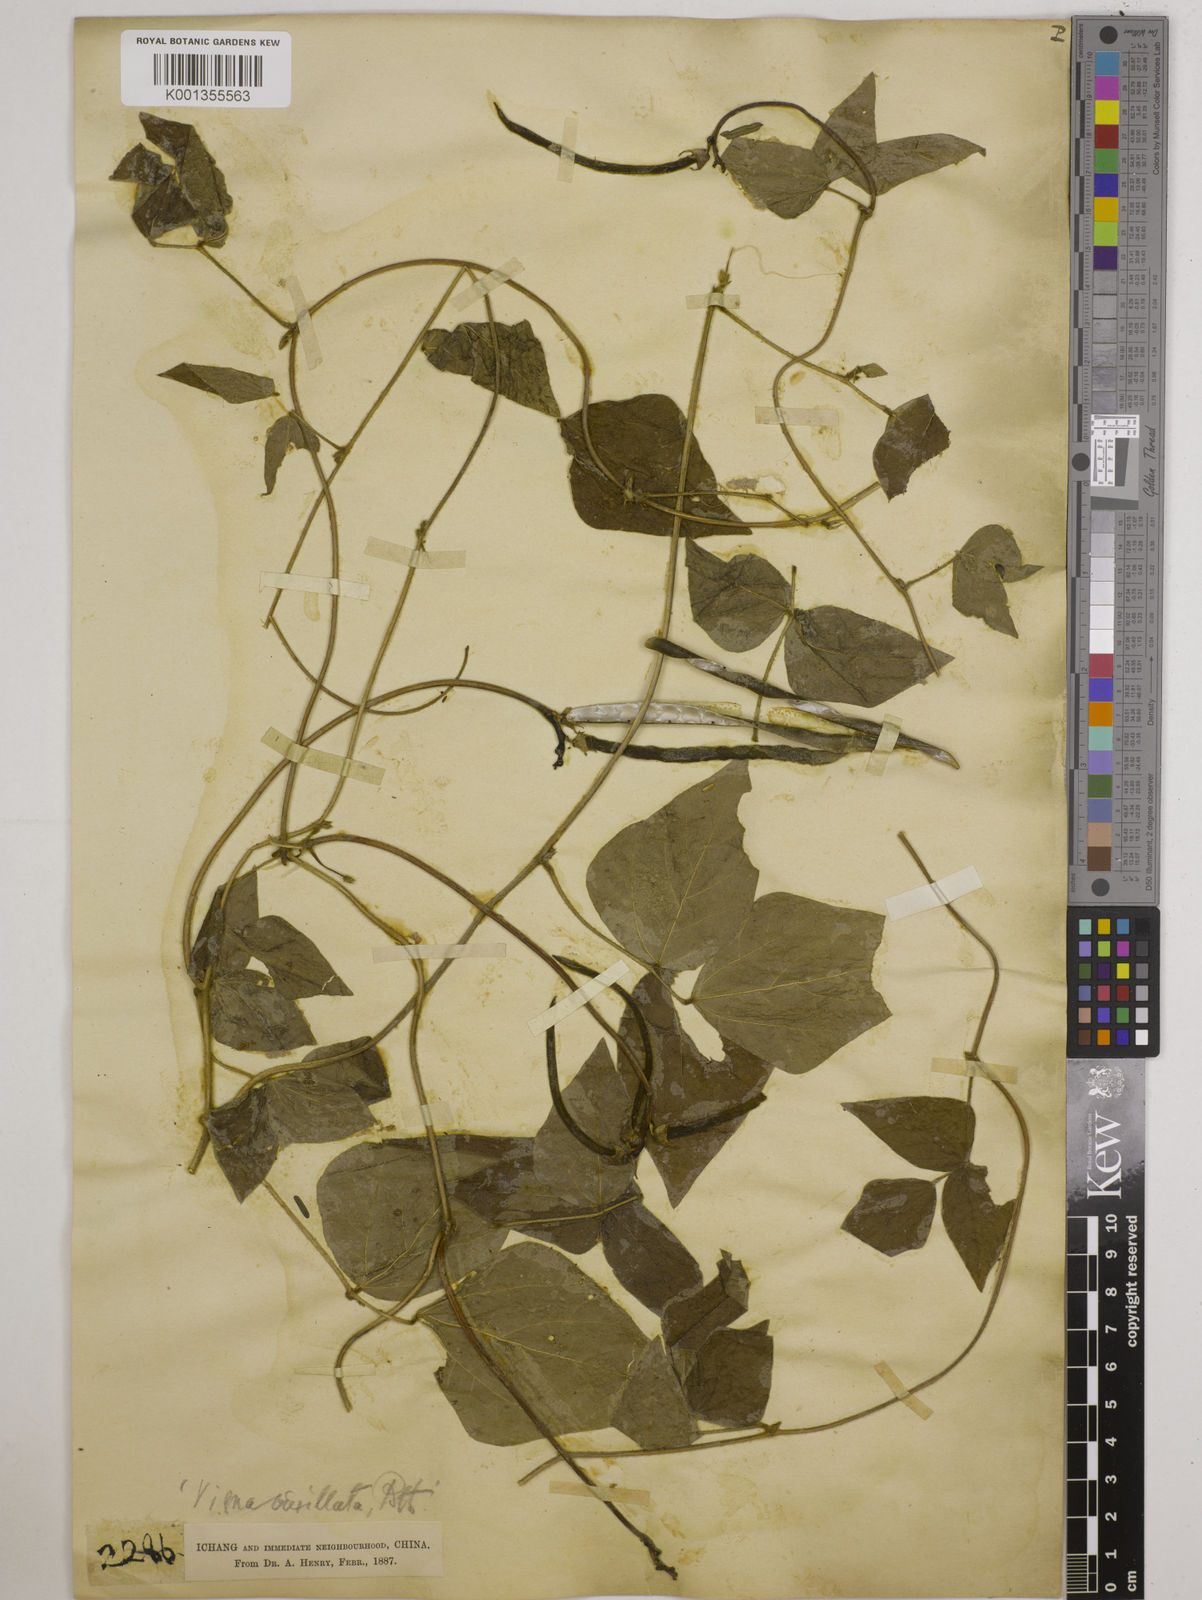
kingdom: Plantae
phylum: Tracheophyta
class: Magnoliopsida
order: Fabales
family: Fabaceae
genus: Vigna
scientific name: Vigna vexillata
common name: Zombi pea
